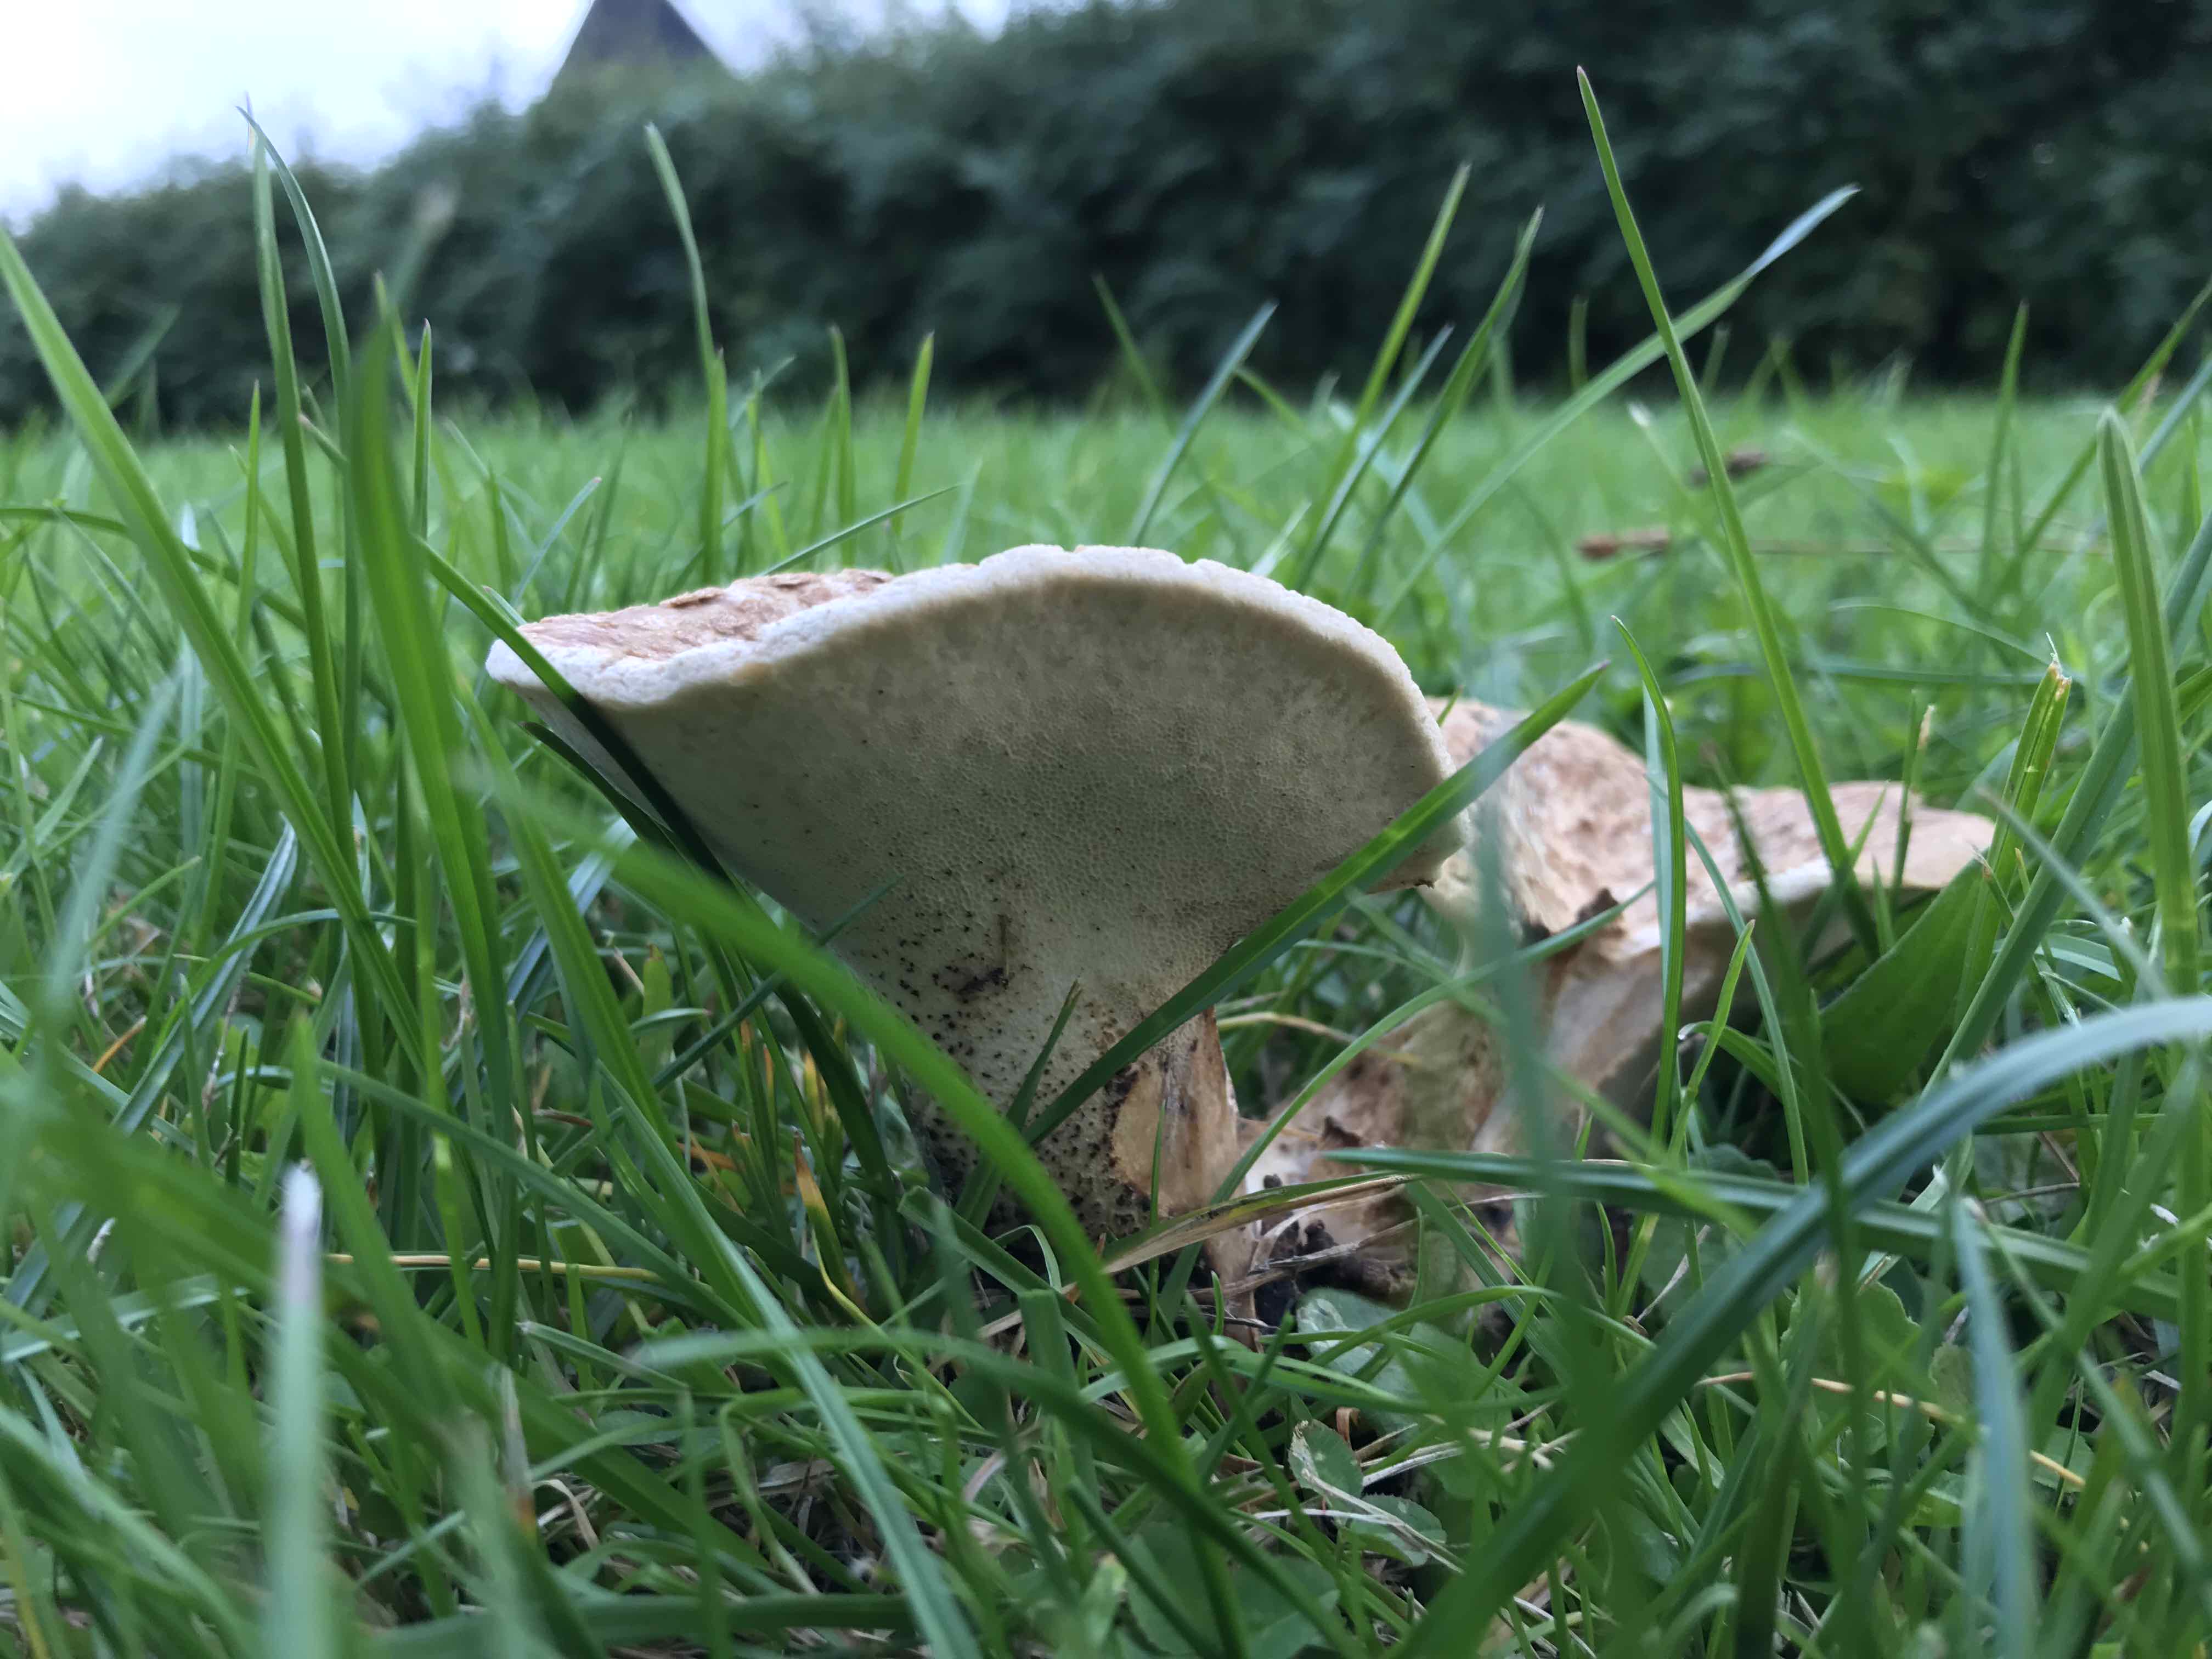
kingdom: Fungi
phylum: Basidiomycota
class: Agaricomycetes
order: Polyporales
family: Polyporaceae
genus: Cerioporus
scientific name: Cerioporus squamosus
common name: skællet stilkporesvamp
